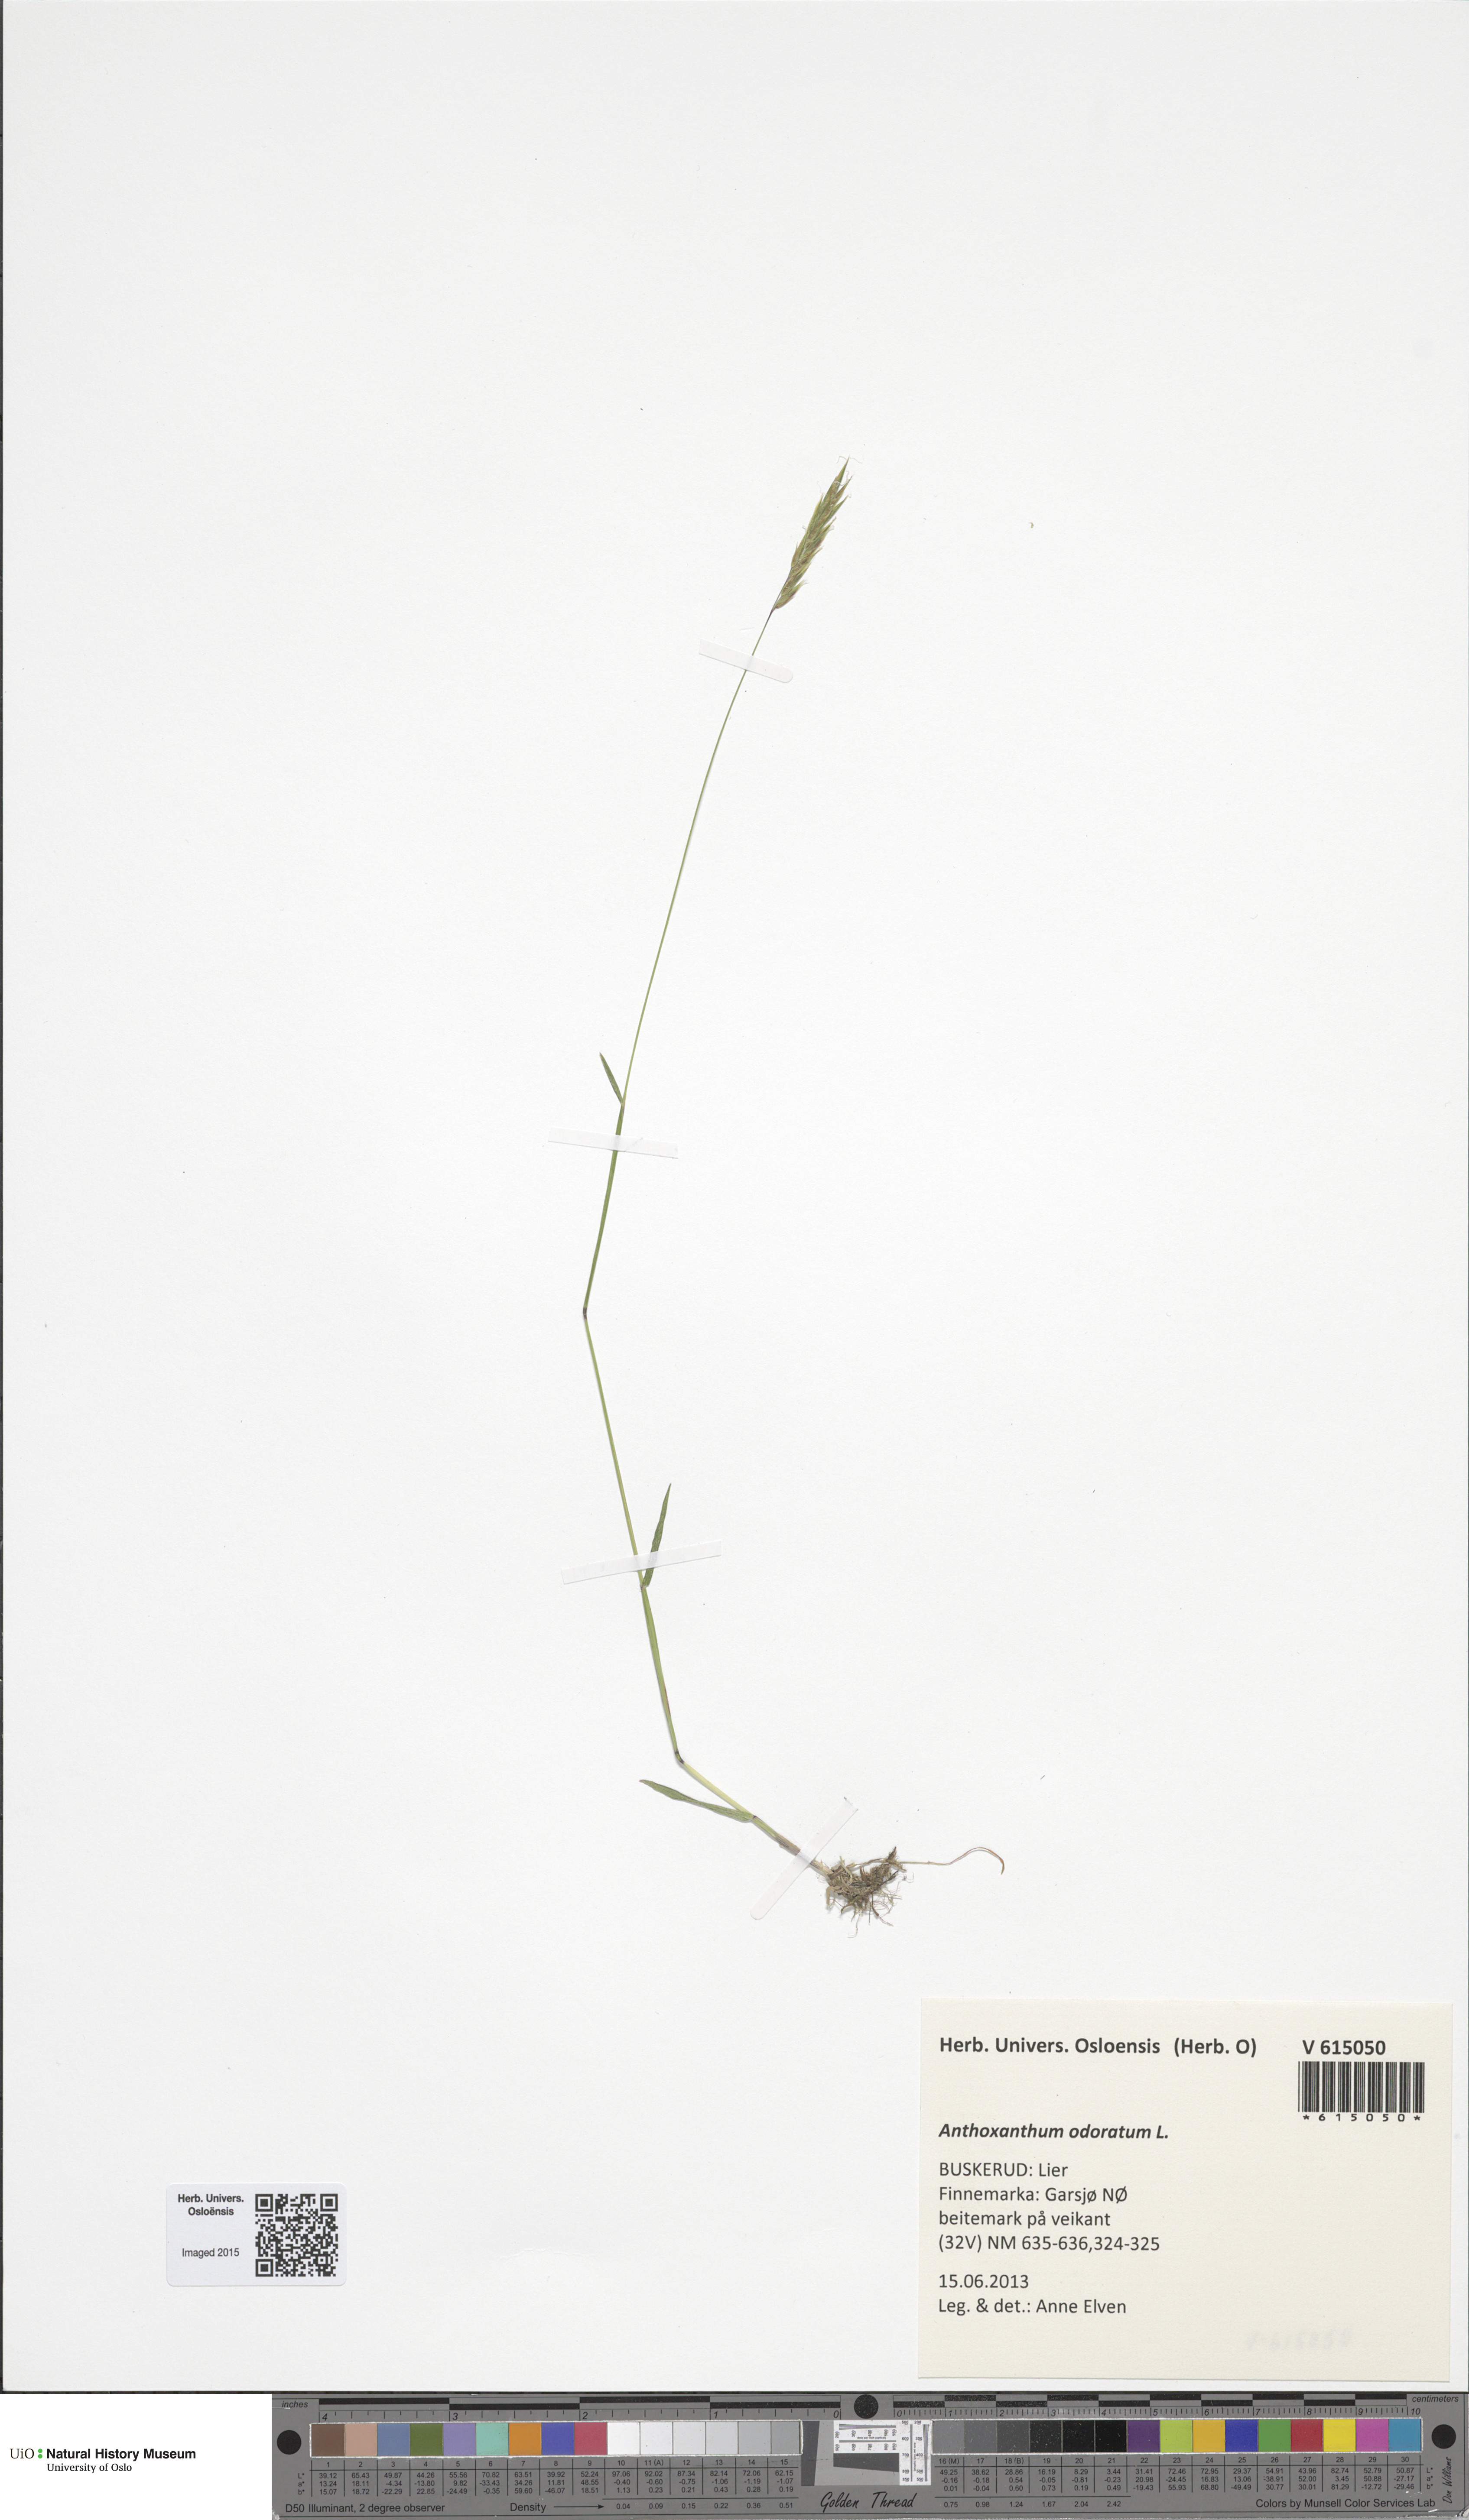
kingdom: Plantae
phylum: Tracheophyta
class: Liliopsida
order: Poales
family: Poaceae
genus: Anthoxanthum
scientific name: Anthoxanthum odoratum
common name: Sweet vernalgrass
